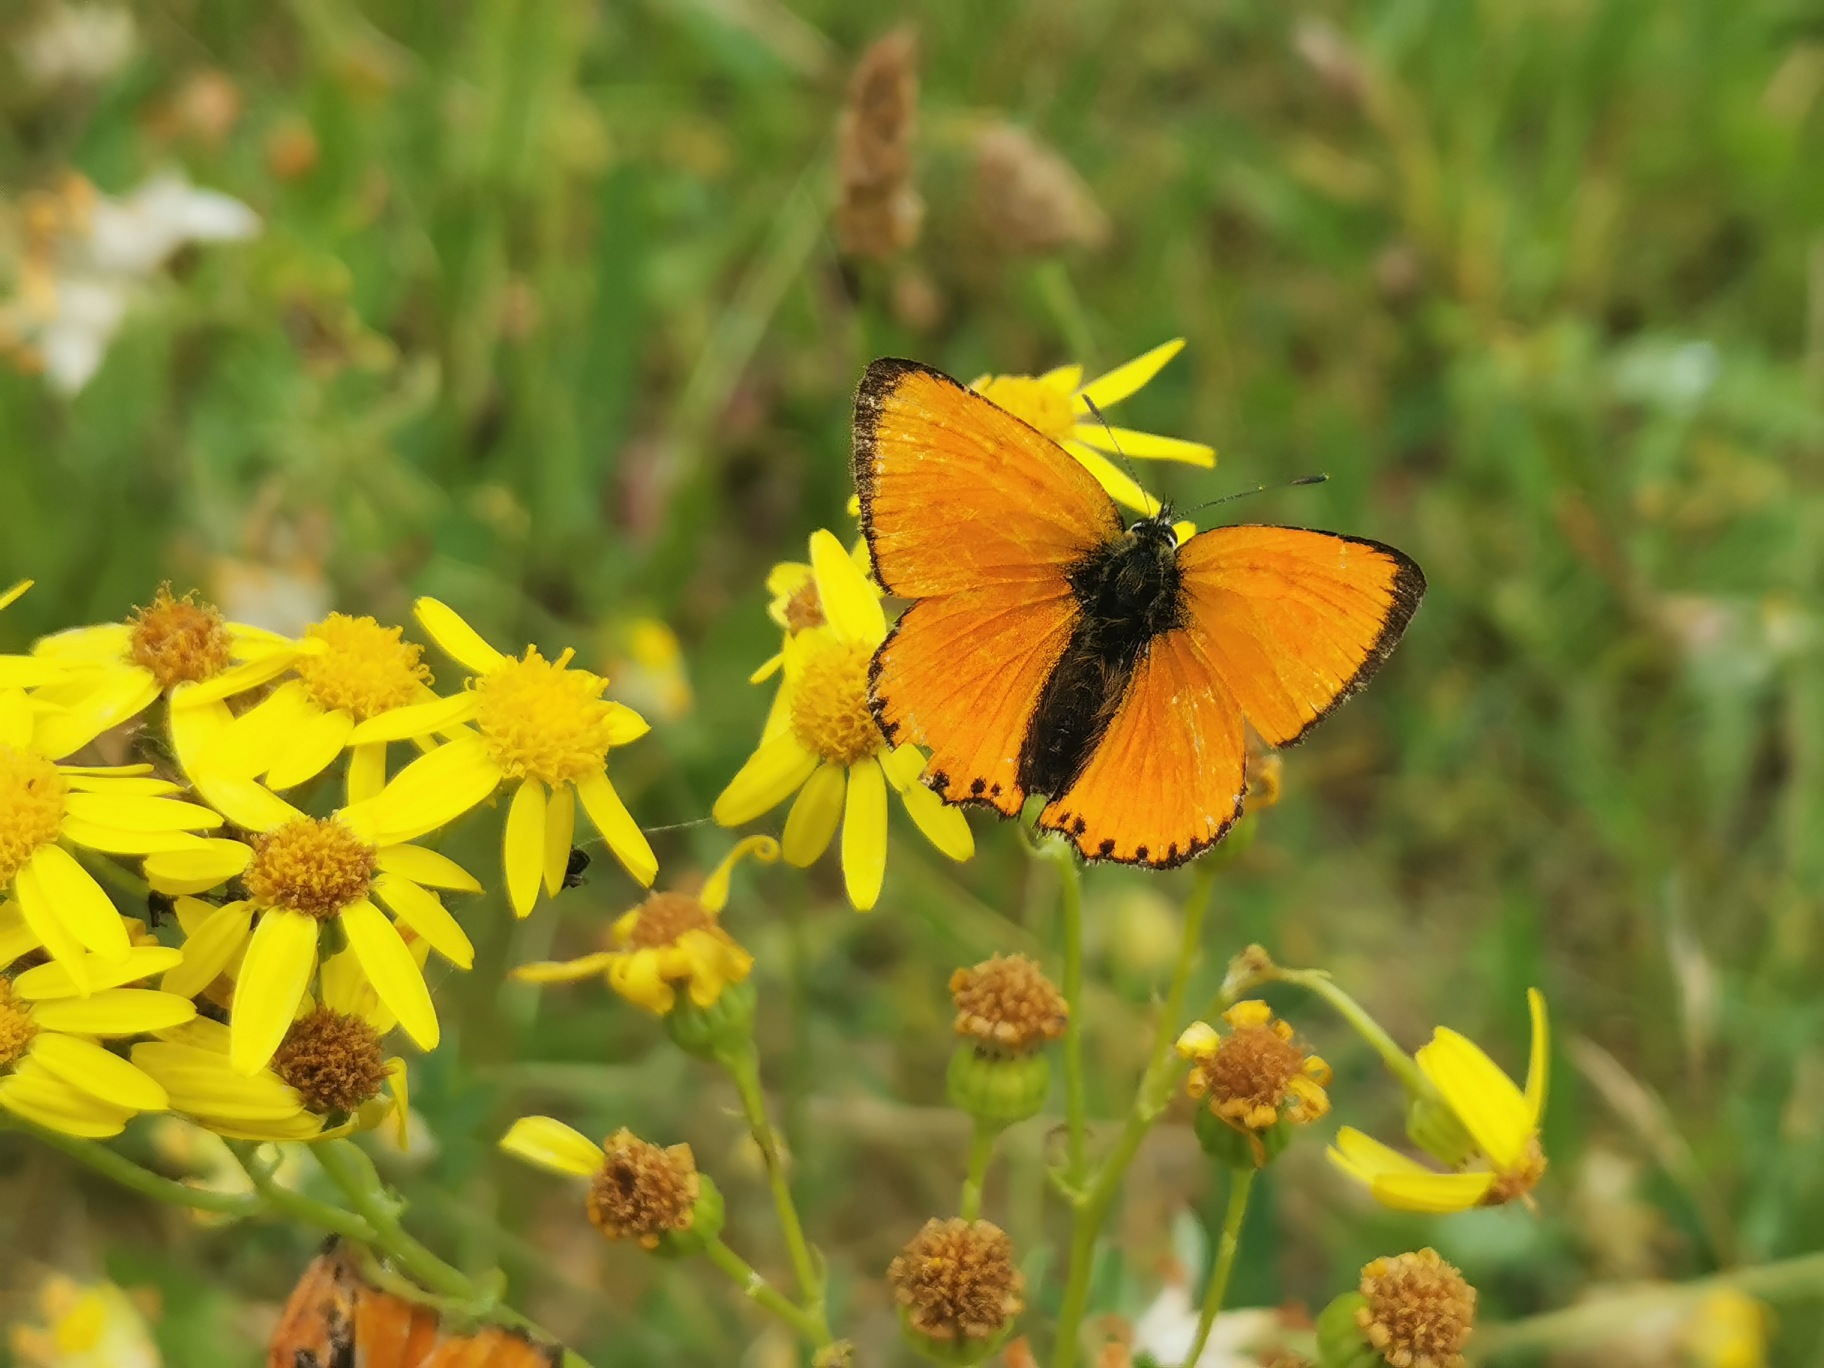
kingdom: Animalia
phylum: Arthropoda
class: Insecta
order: Lepidoptera
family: Lycaenidae
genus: Lycaena
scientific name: Lycaena virgaureae
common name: Dukatsommerfugl
